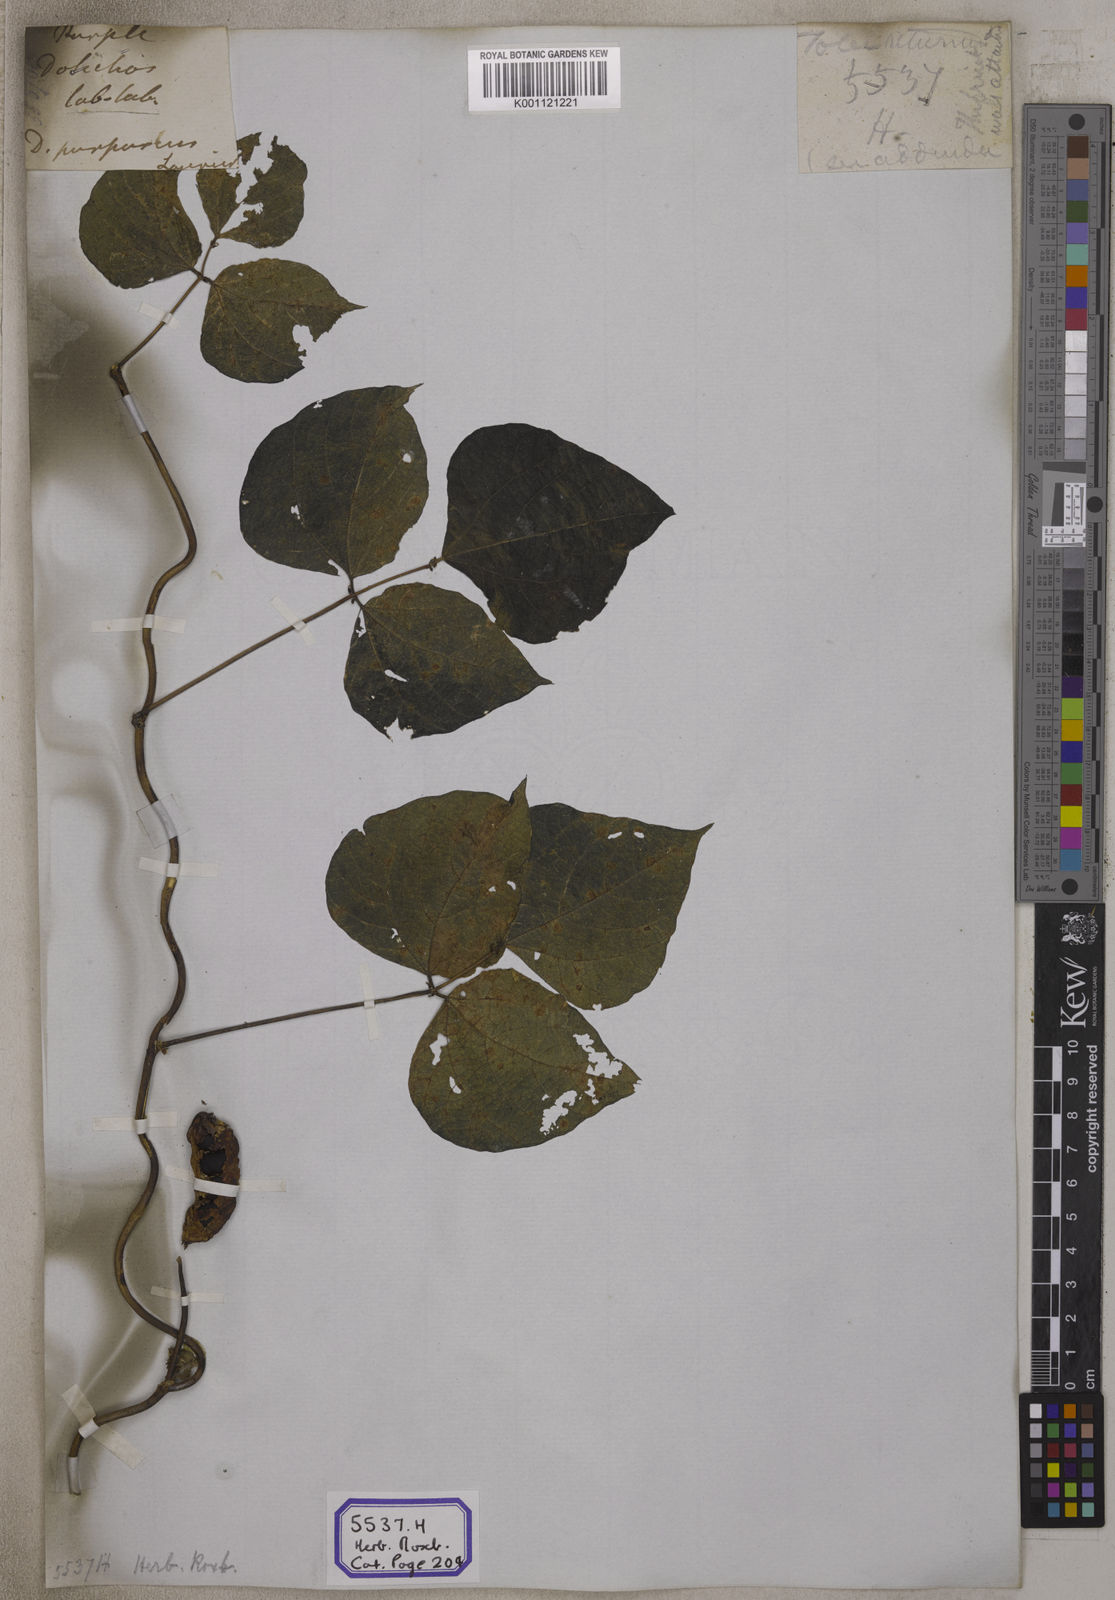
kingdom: Plantae
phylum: Tracheophyta
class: Magnoliopsida
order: Fabales
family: Fabaceae
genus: Lablab
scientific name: Lablab purpureus
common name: Lablab-bean
